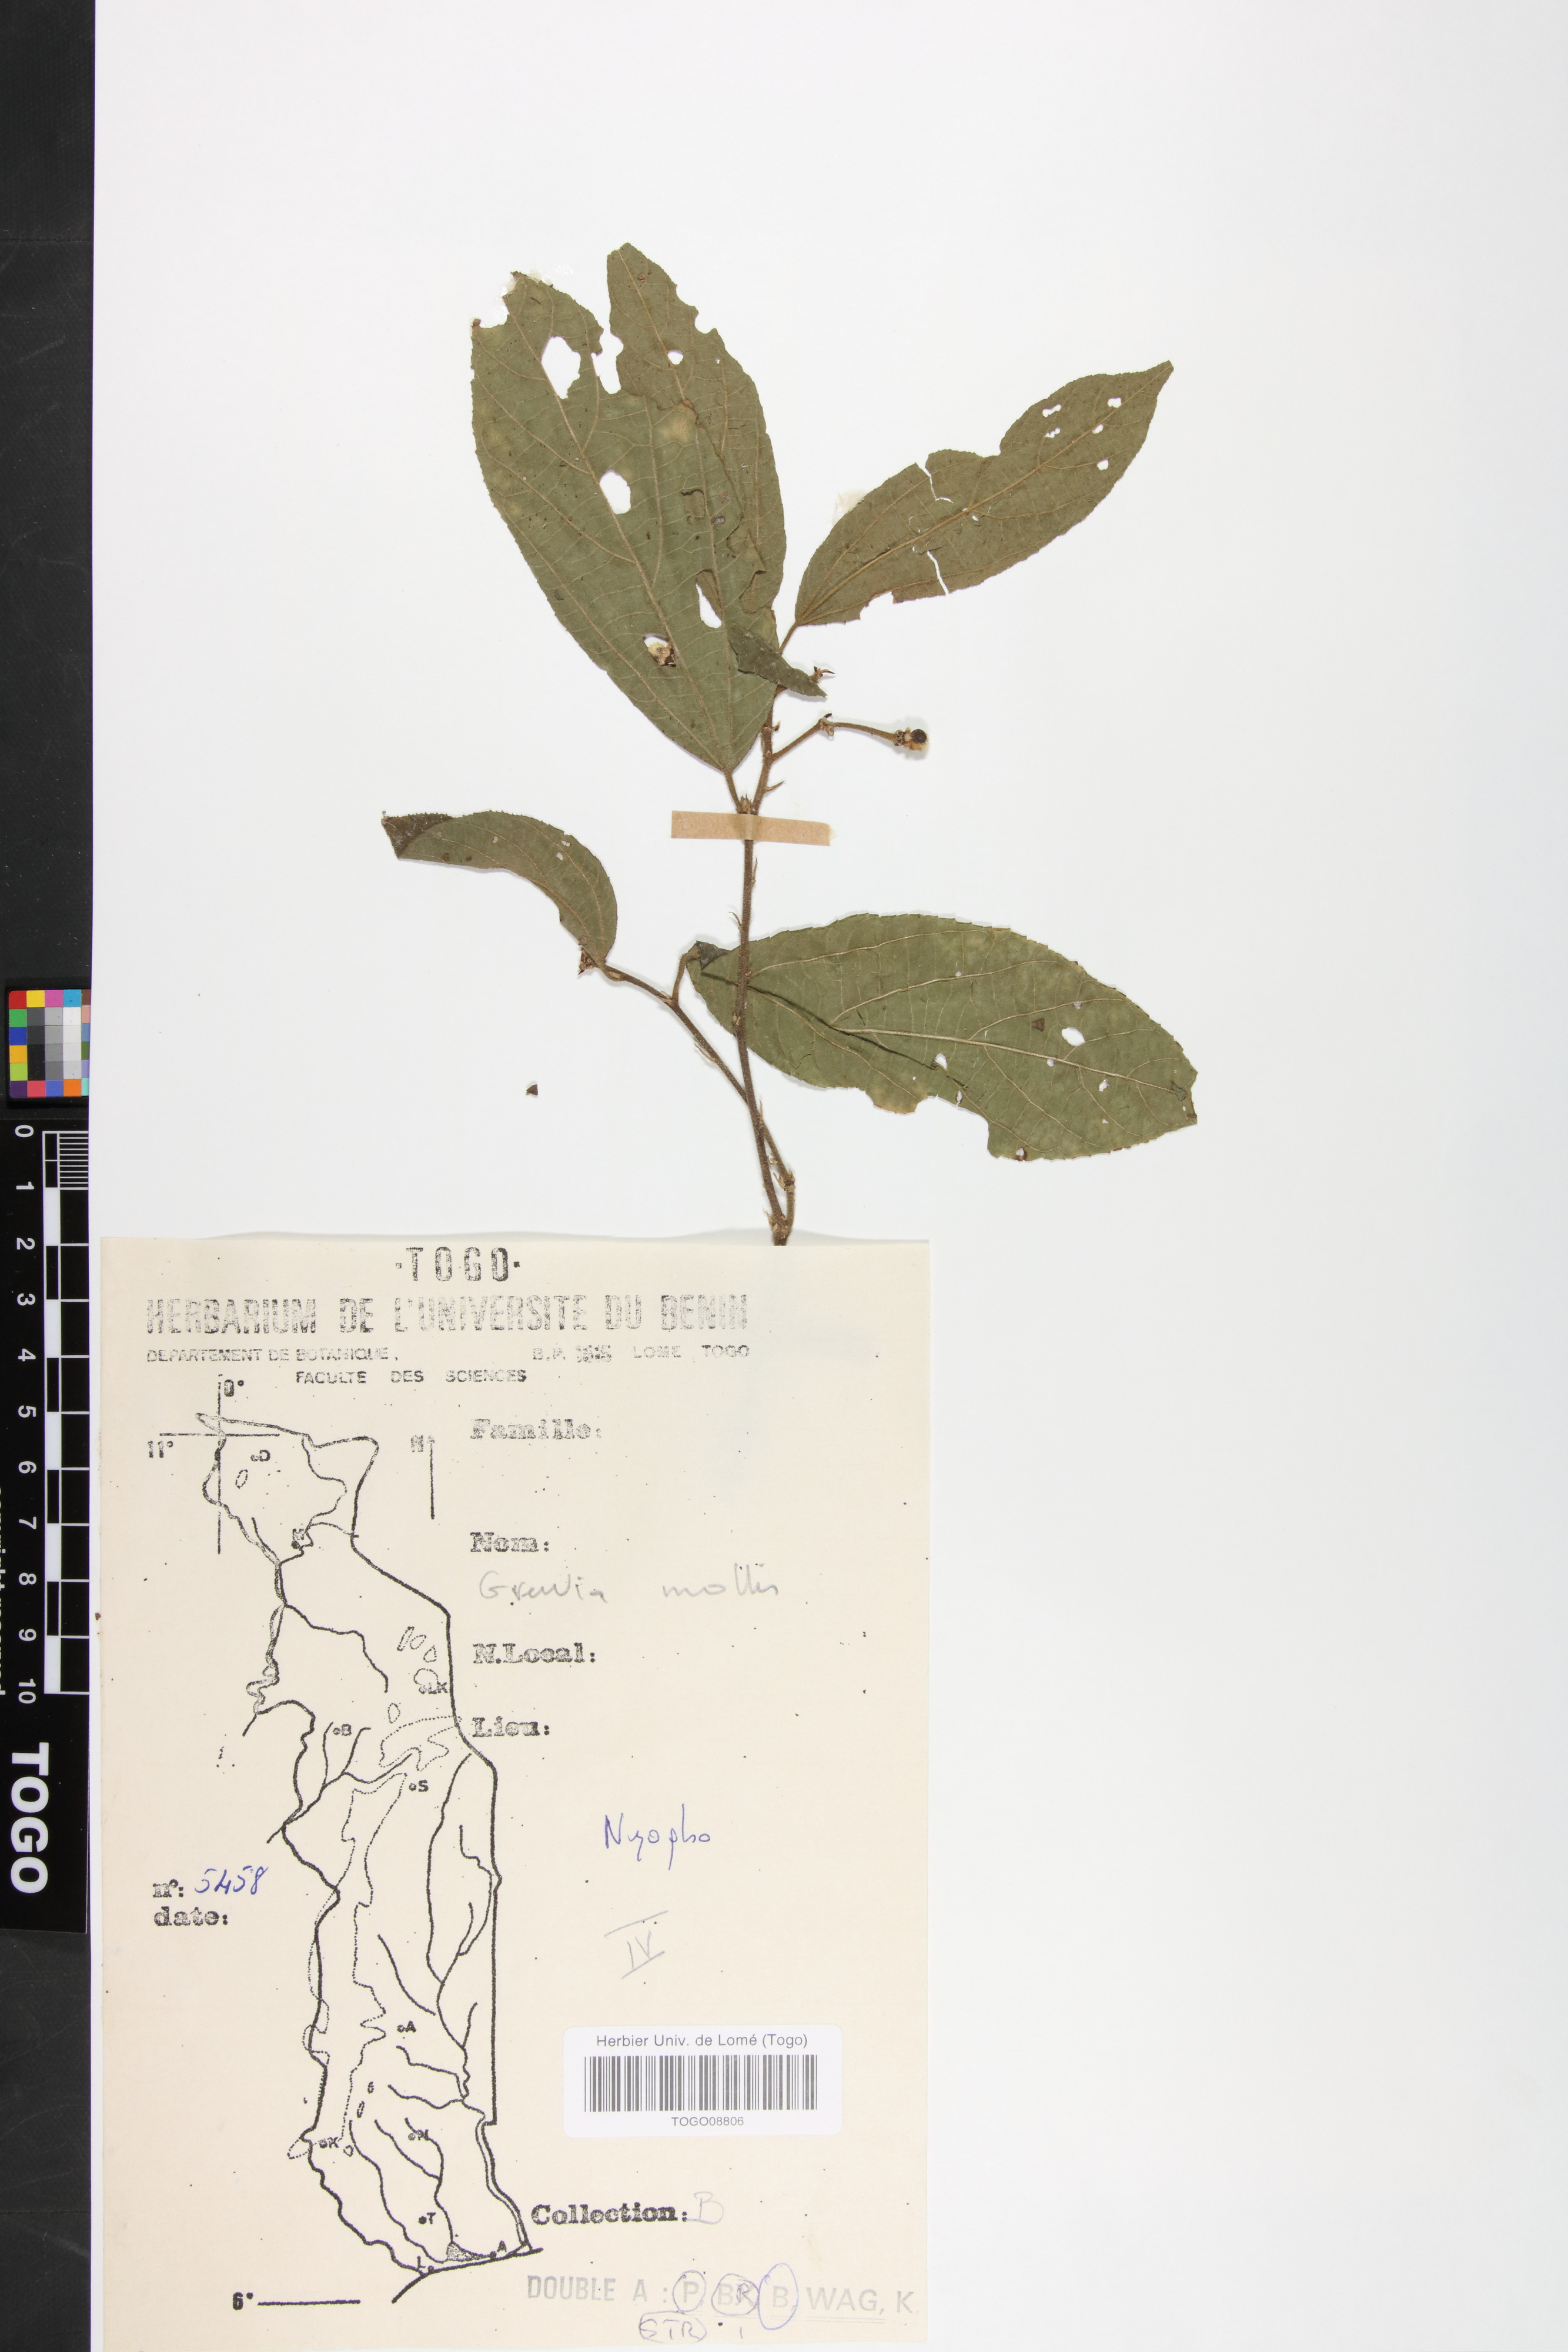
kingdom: Plantae
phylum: Tracheophyta
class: Magnoliopsida
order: Malvales
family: Malvaceae
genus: Grewia
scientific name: Grewia mollis
